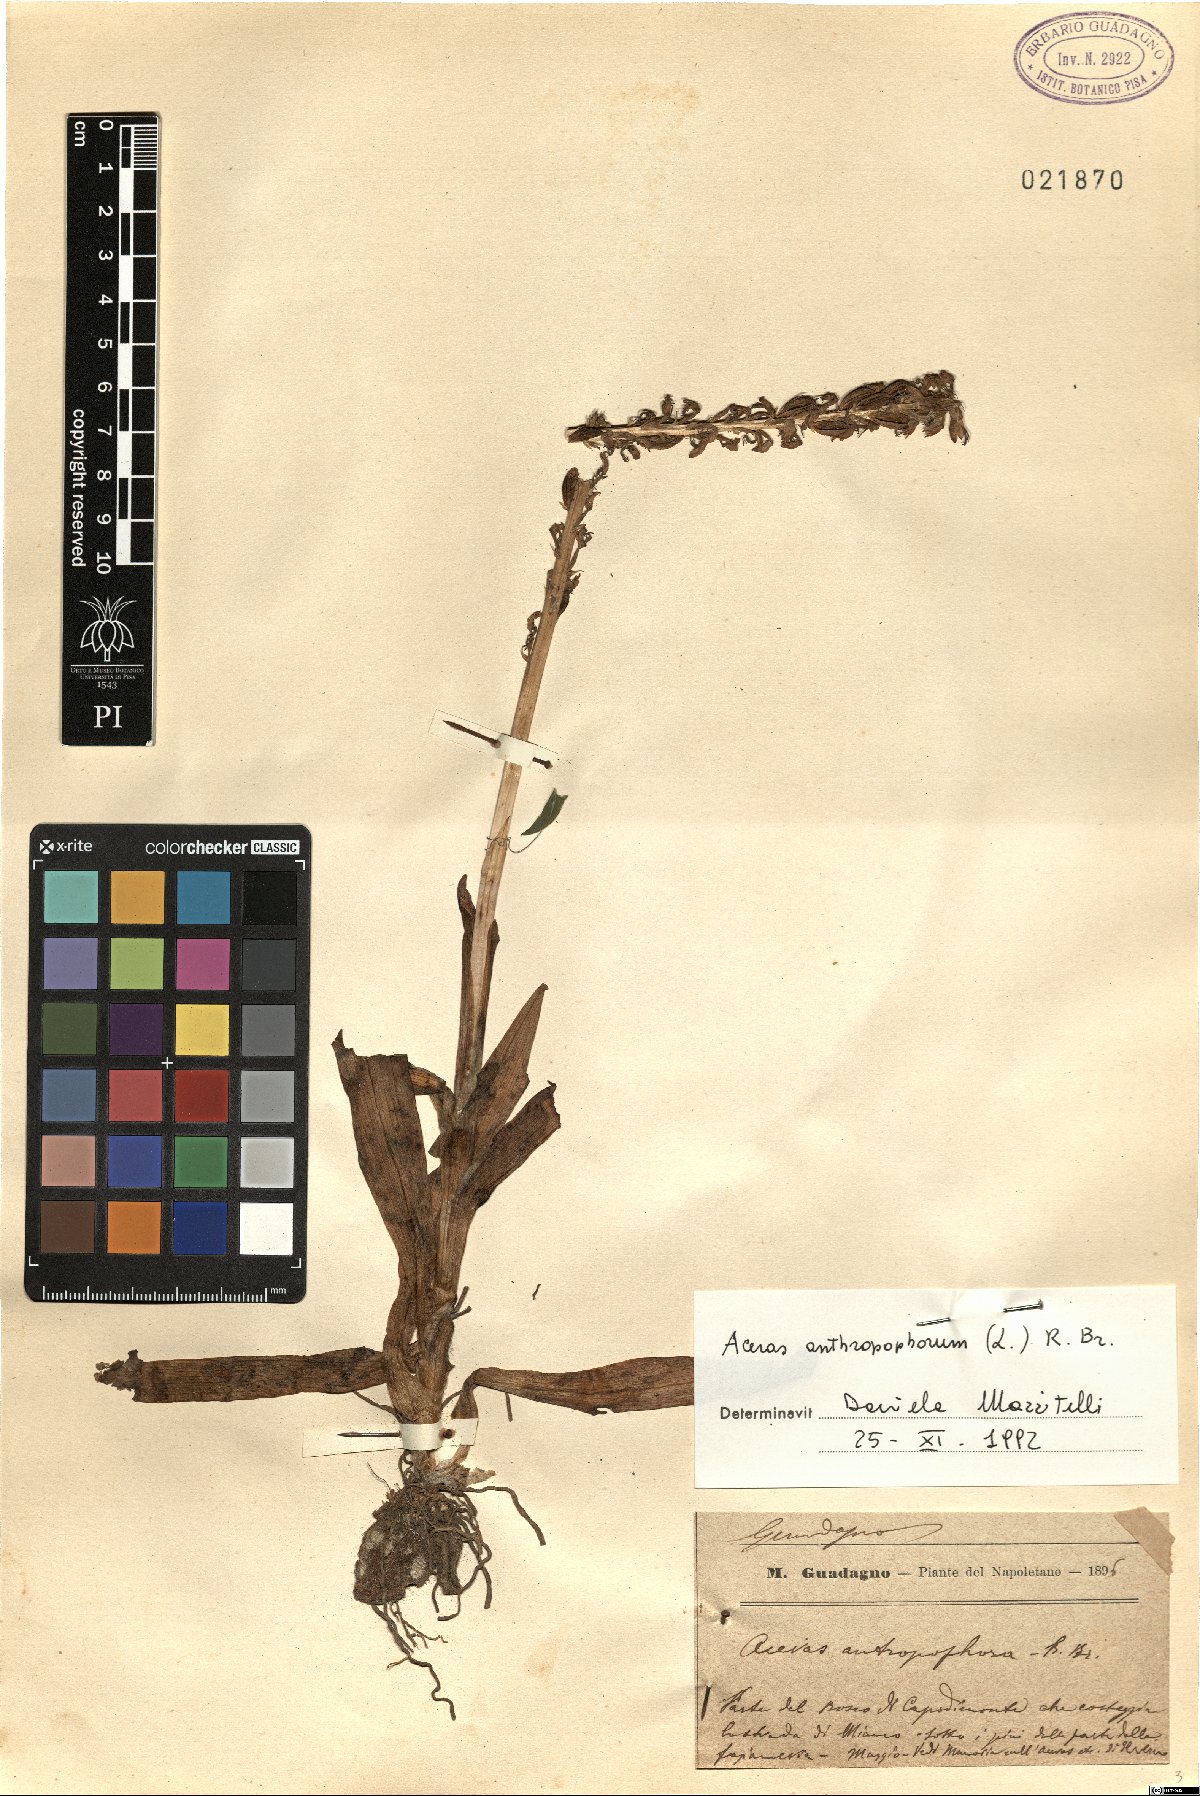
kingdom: Plantae
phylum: Tracheophyta
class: Liliopsida
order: Asparagales
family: Orchidaceae
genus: Orchis
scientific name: Orchis anthropophora
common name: Man orchid
